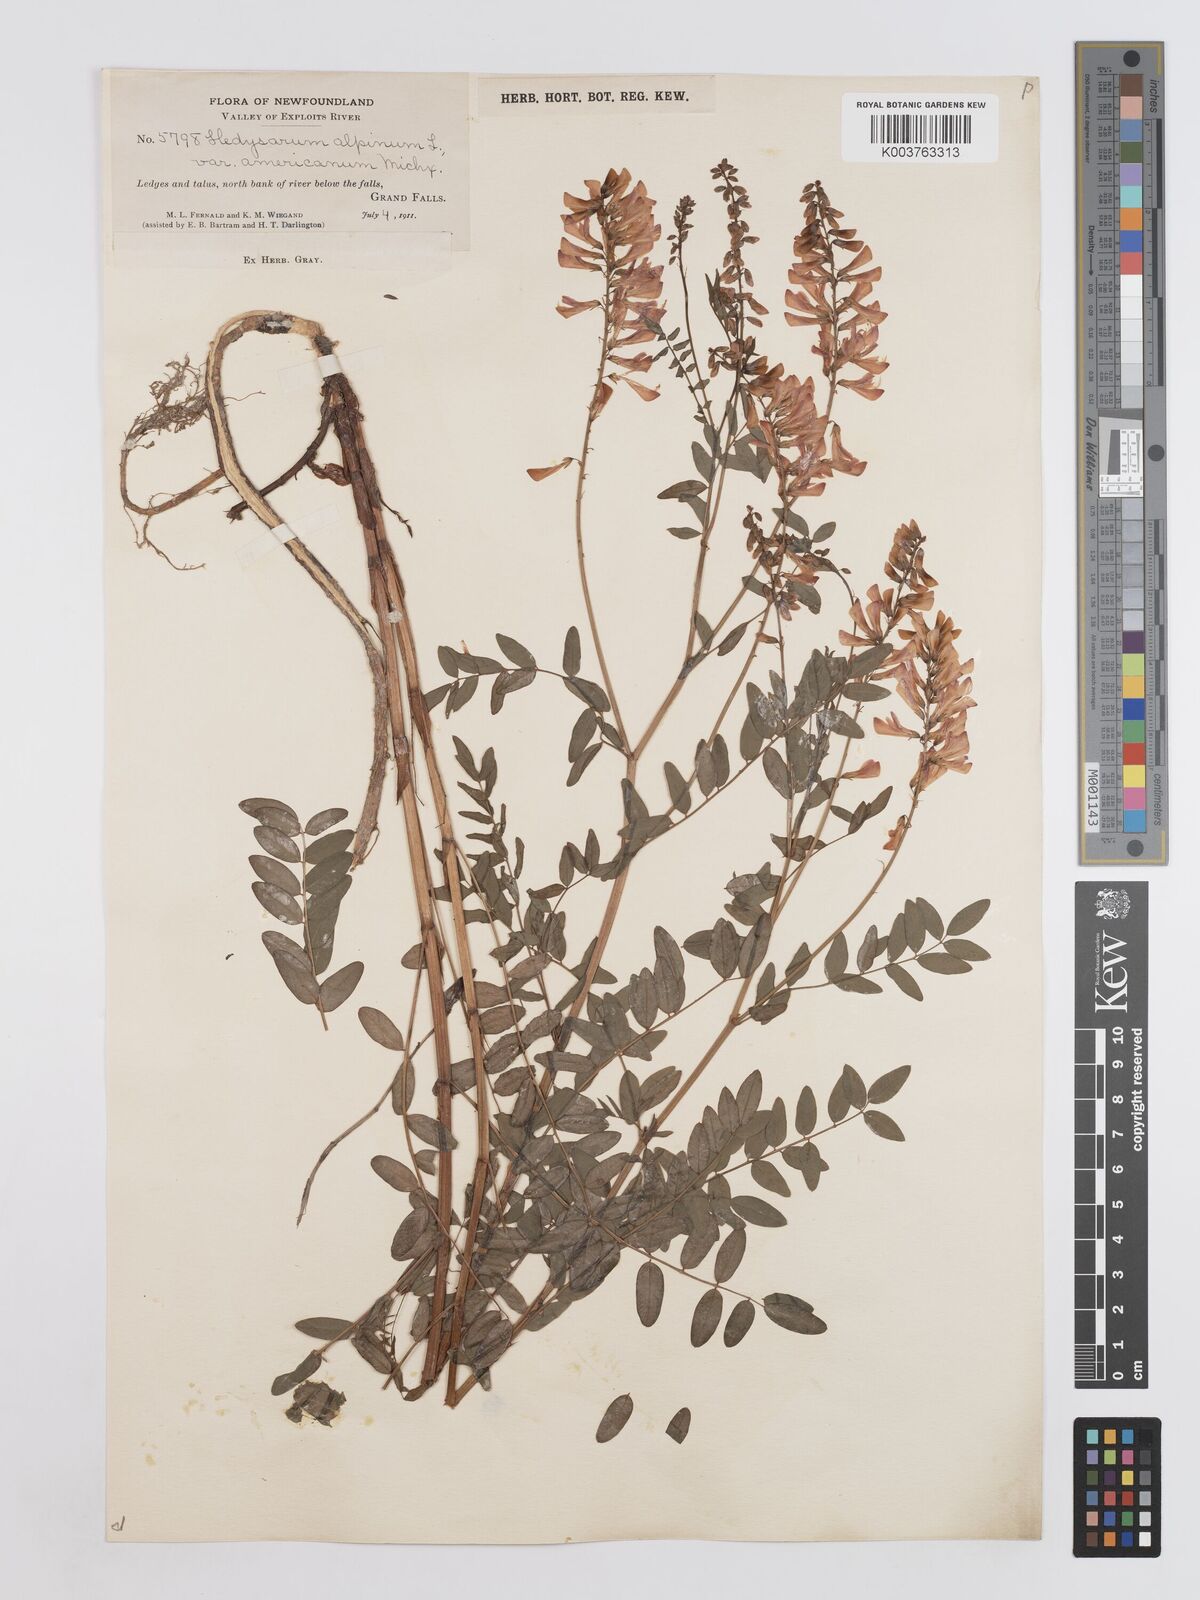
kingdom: Plantae
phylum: Tracheophyta
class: Magnoliopsida
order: Fabales
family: Fabaceae
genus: Hedysarum
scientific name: Hedysarum alpinum
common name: Alpine sweet-vetch
